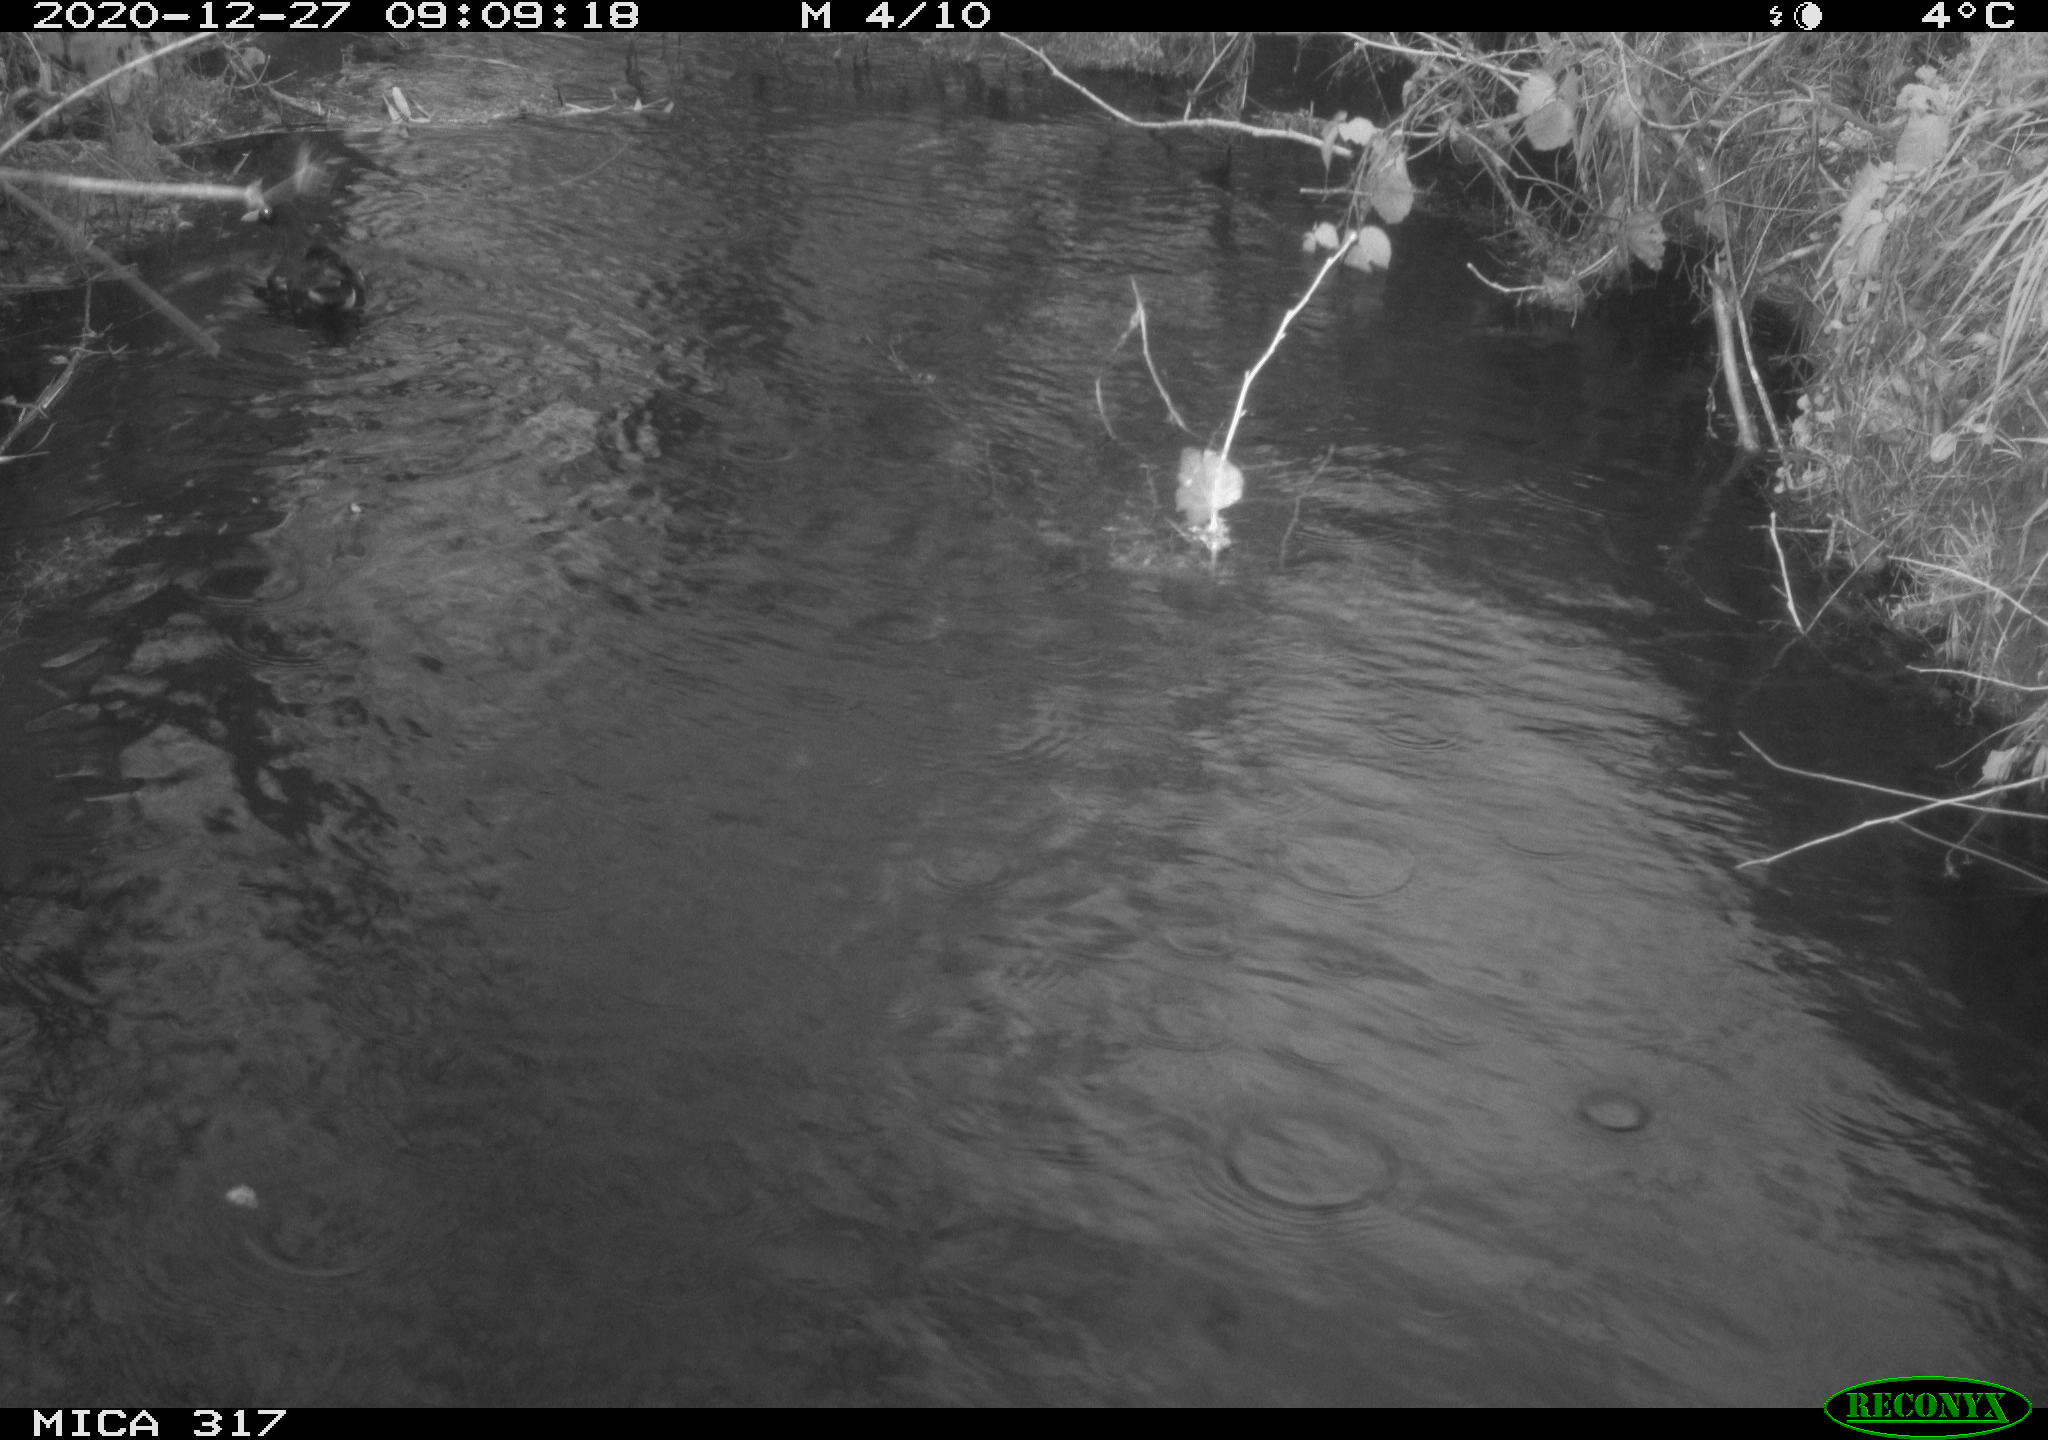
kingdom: Animalia
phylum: Chordata
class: Aves
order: Gruiformes
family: Rallidae
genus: Gallinula
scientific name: Gallinula chloropus
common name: Common moorhen
